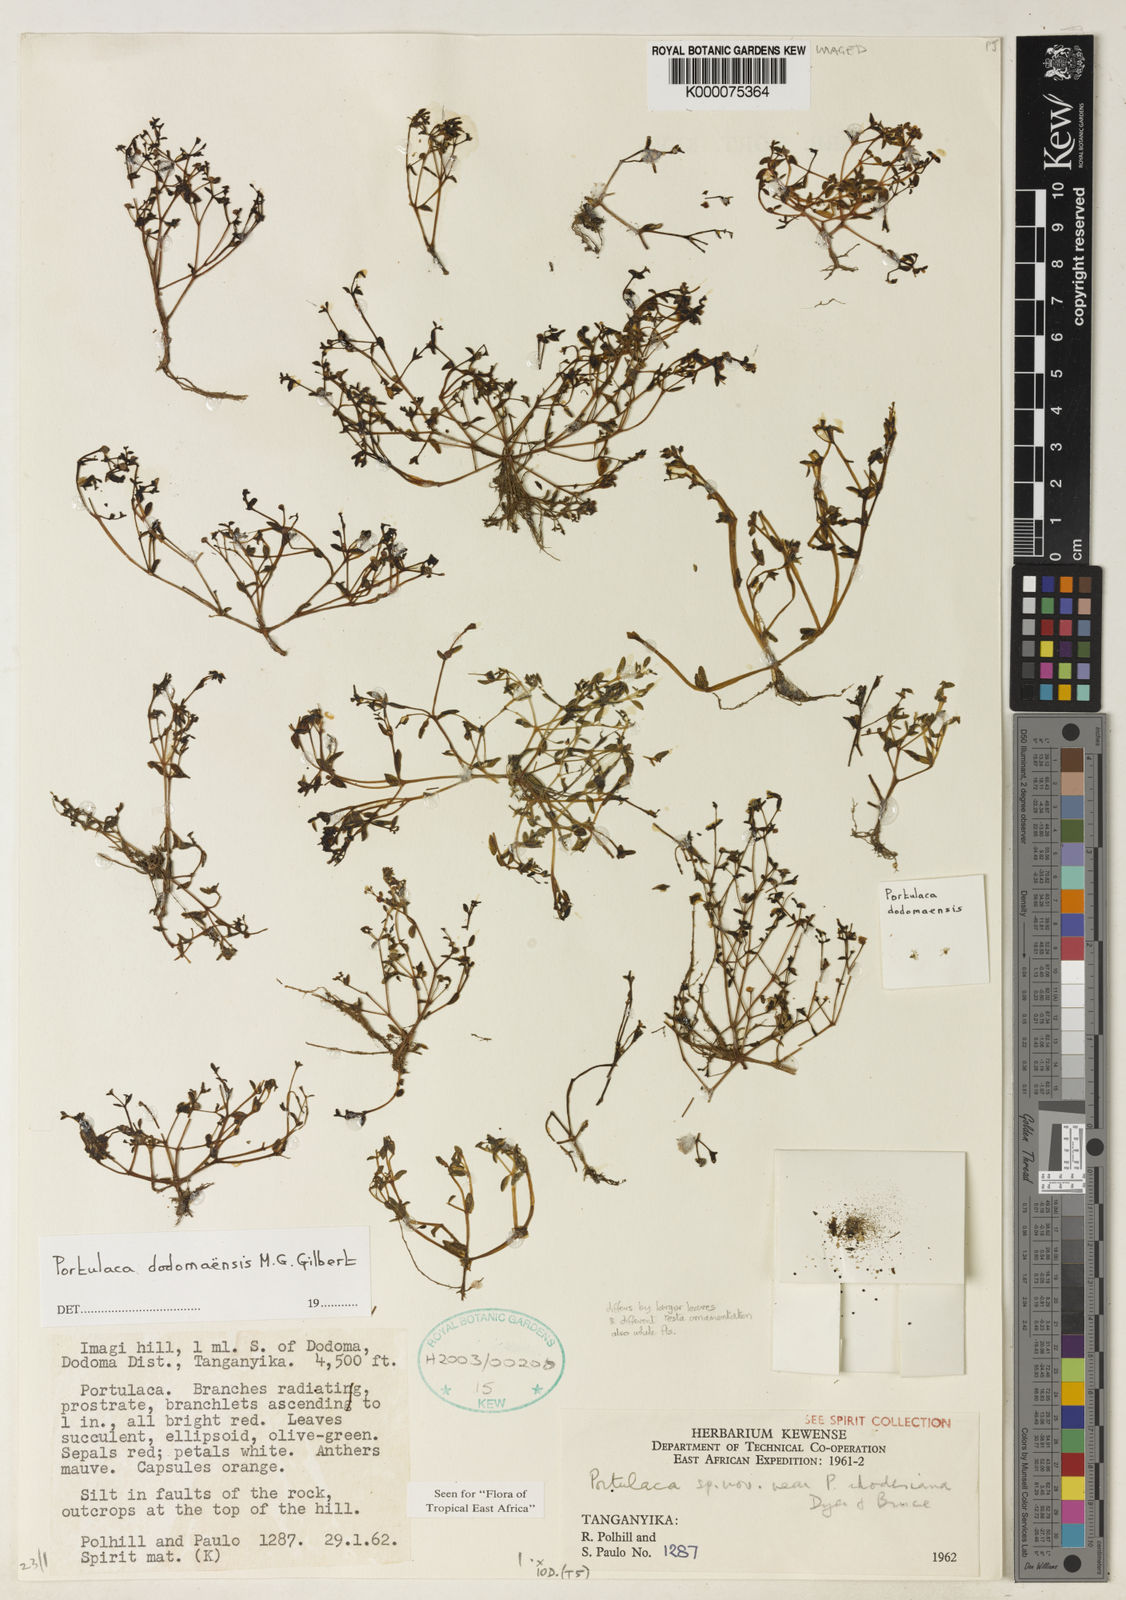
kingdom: Plantae
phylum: Tracheophyta
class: Magnoliopsida
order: Caryophyllales
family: Portulacaceae
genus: Portulaca
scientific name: Portulaca dodomaensis
